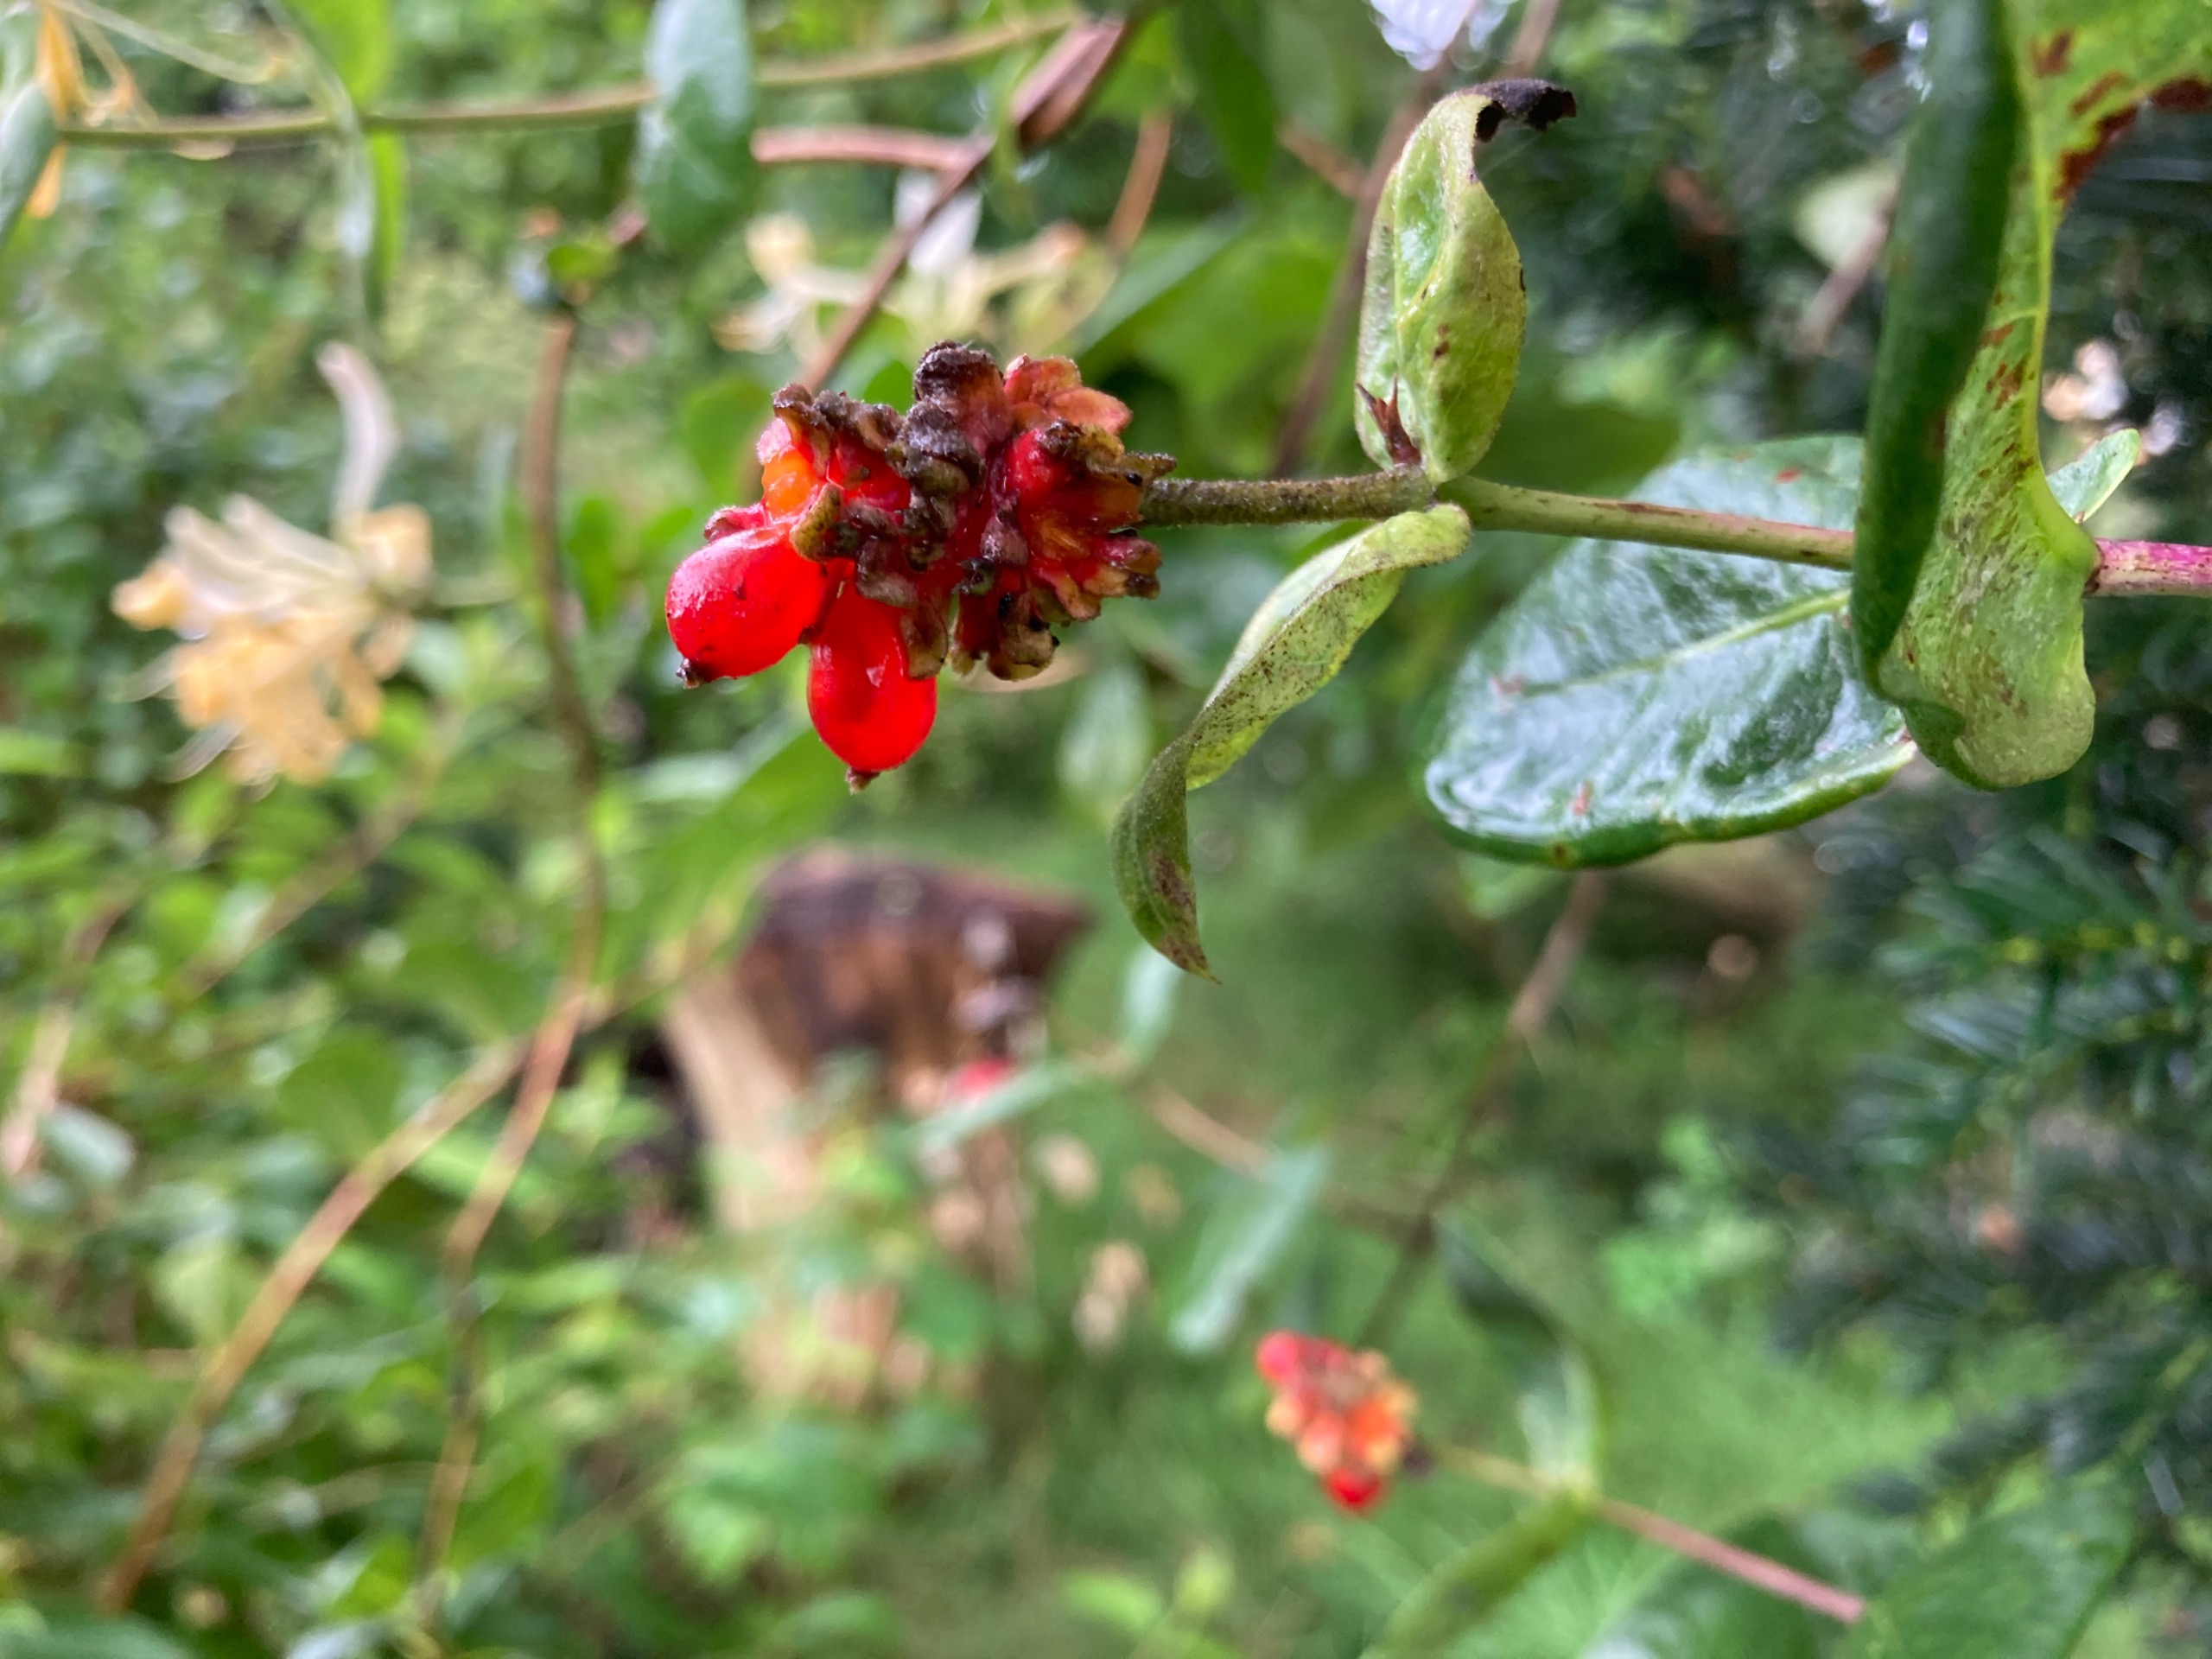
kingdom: Plantae
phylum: Tracheophyta
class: Magnoliopsida
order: Dipsacales
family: Caprifoliaceae
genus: Lonicera
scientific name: Lonicera periclymenum
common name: Almindelig gedeblad
